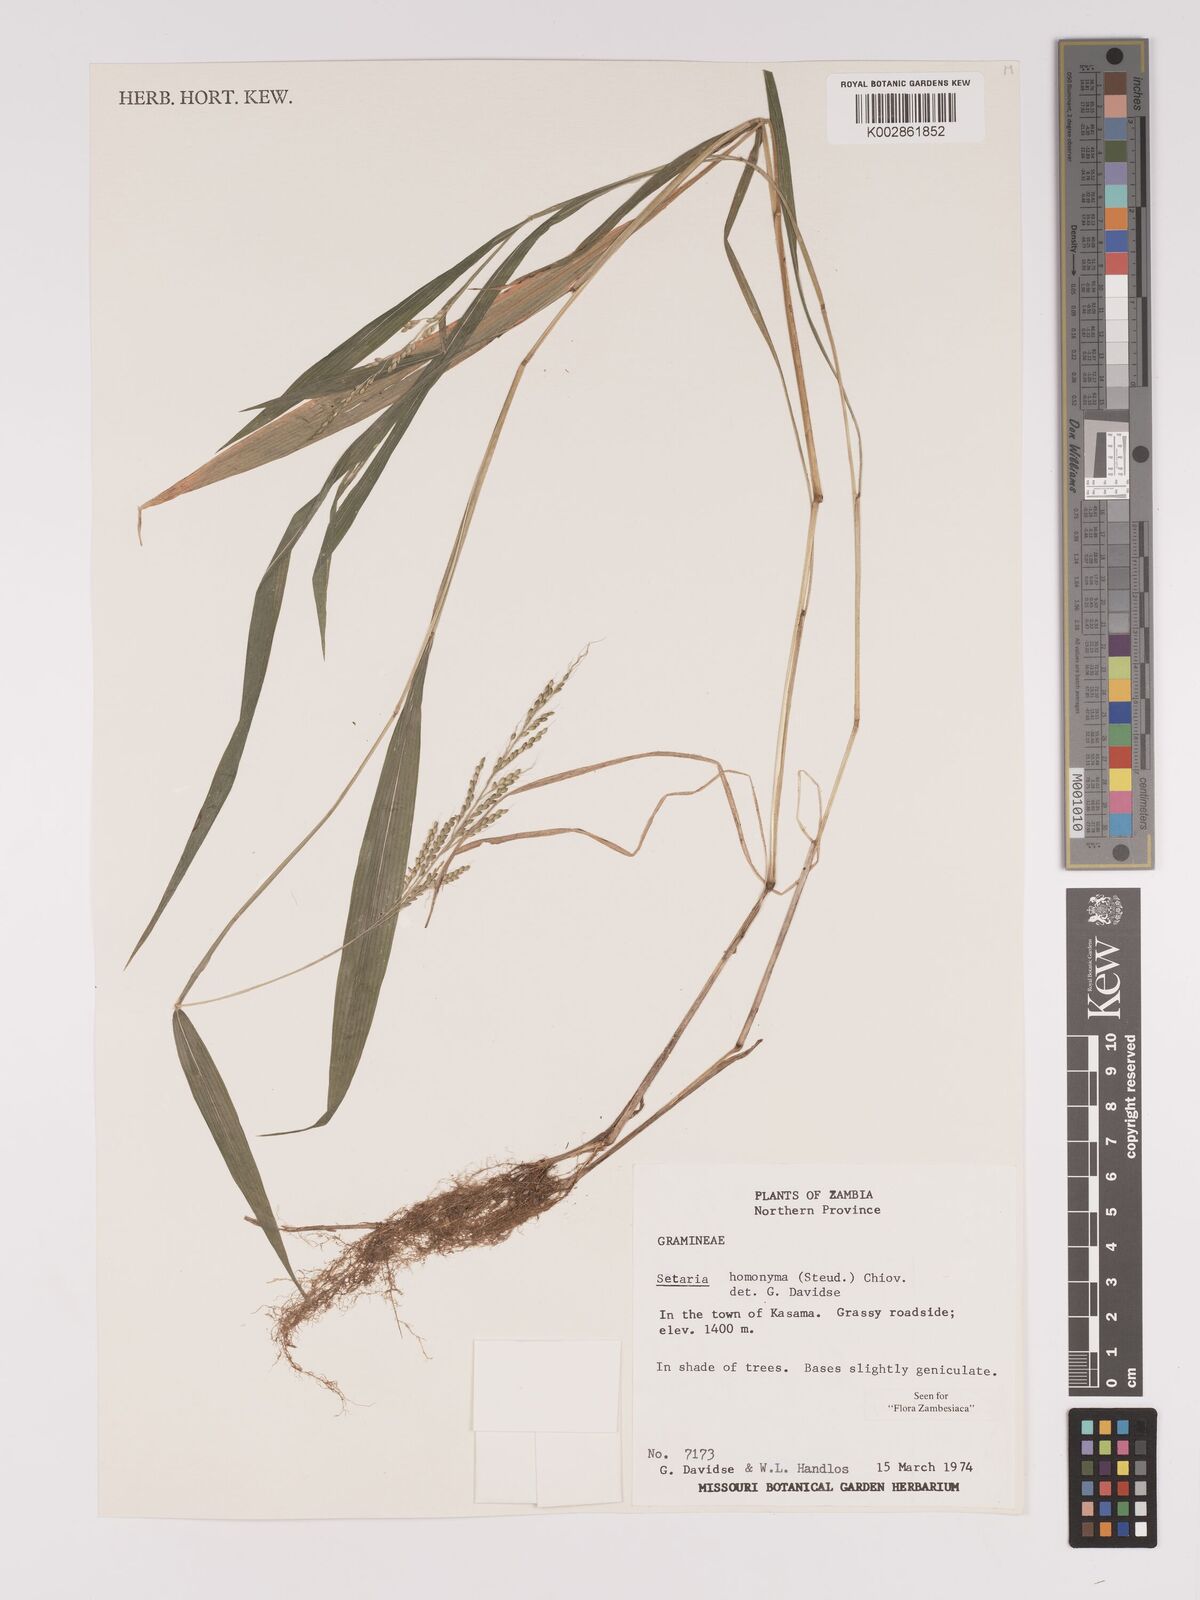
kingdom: Plantae
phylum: Tracheophyta
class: Liliopsida
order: Poales
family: Poaceae
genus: Setaria
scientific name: Setaria homonyma
